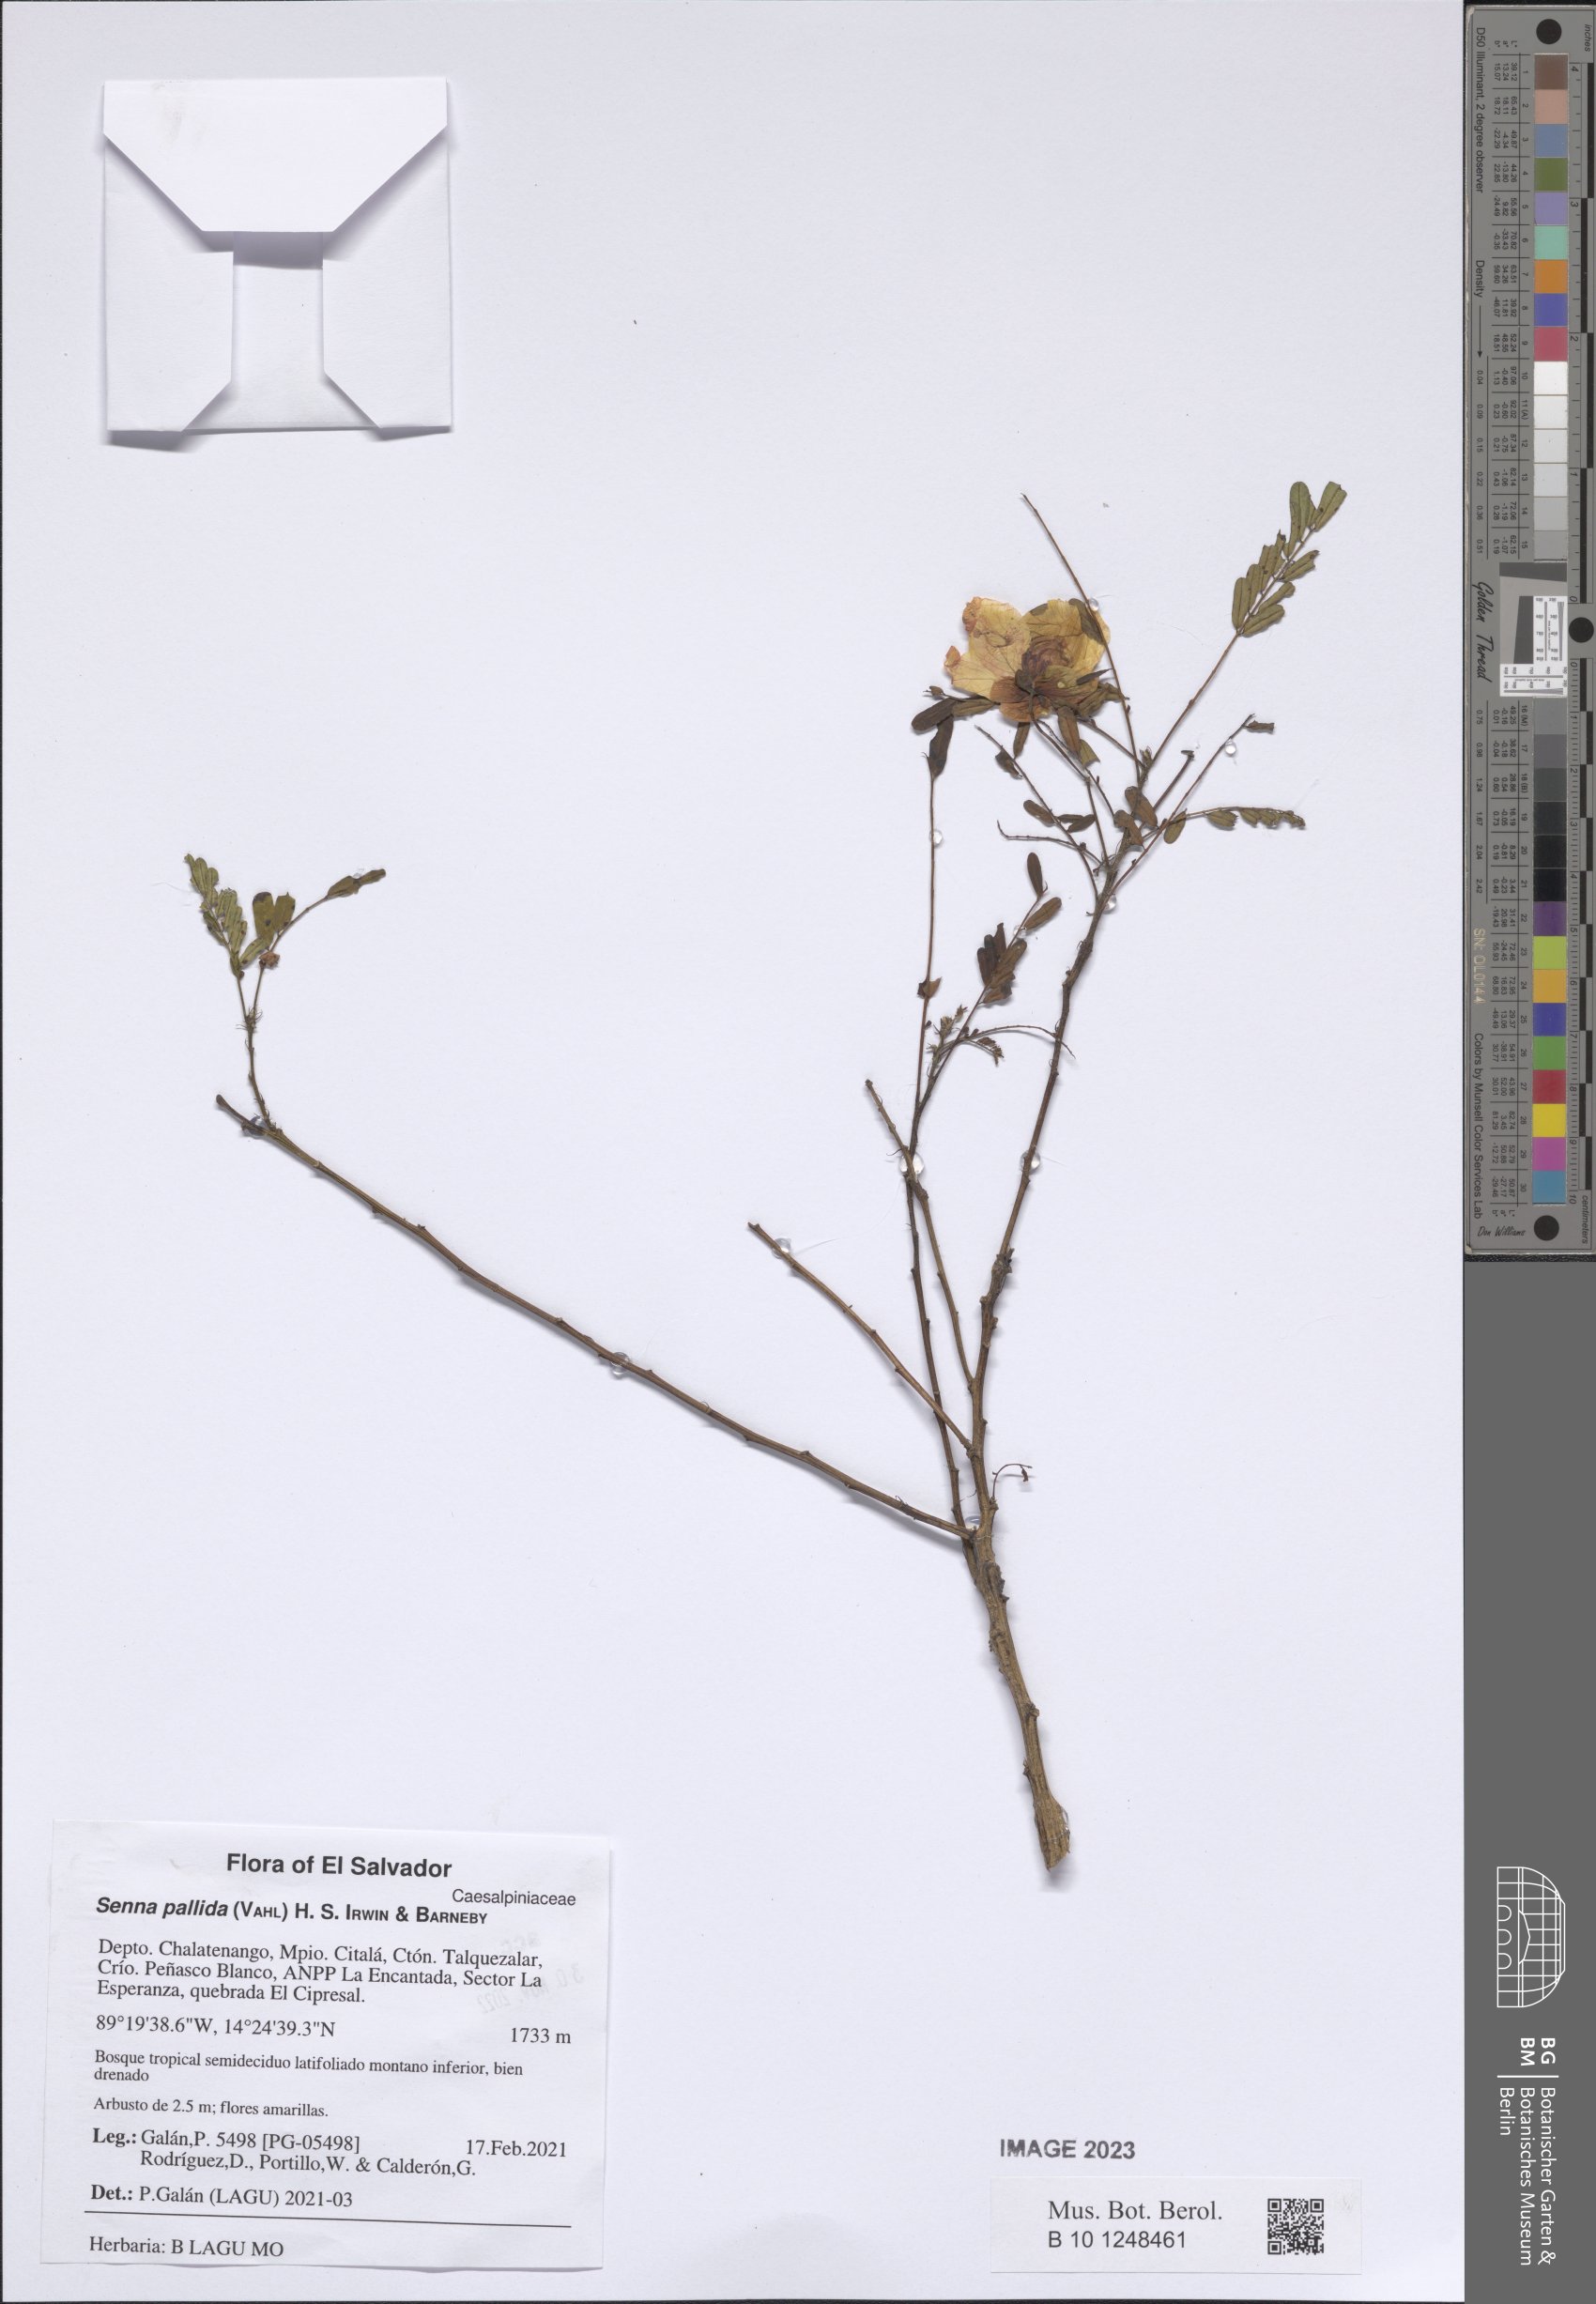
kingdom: Plantae
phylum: Tracheophyta
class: Magnoliopsida
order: Fabales
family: Fabaceae
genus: Senna
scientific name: Senna pallida
